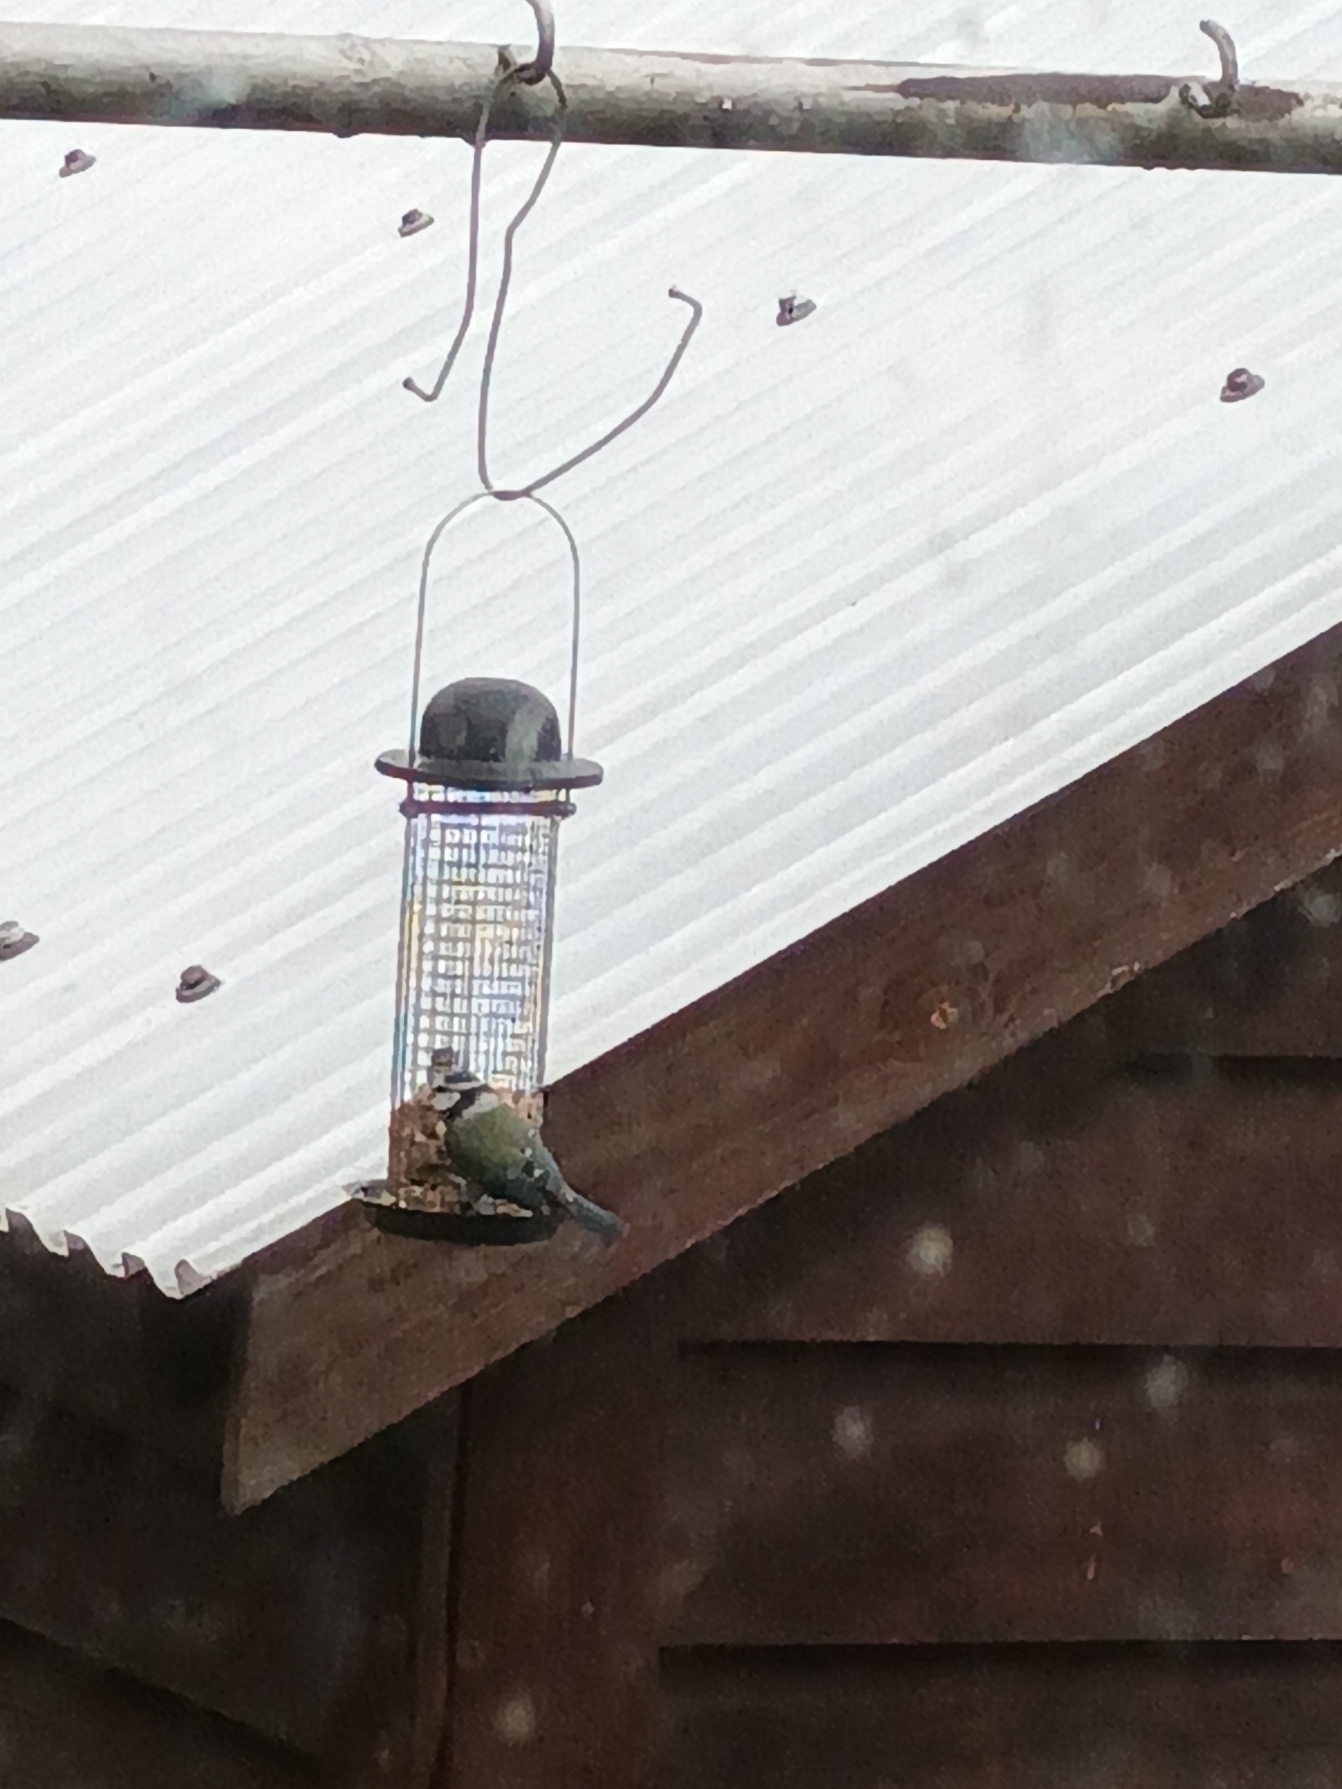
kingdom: Animalia
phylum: Chordata
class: Aves
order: Passeriformes
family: Paridae
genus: Cyanistes
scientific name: Cyanistes caeruleus
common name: Blåmejse
